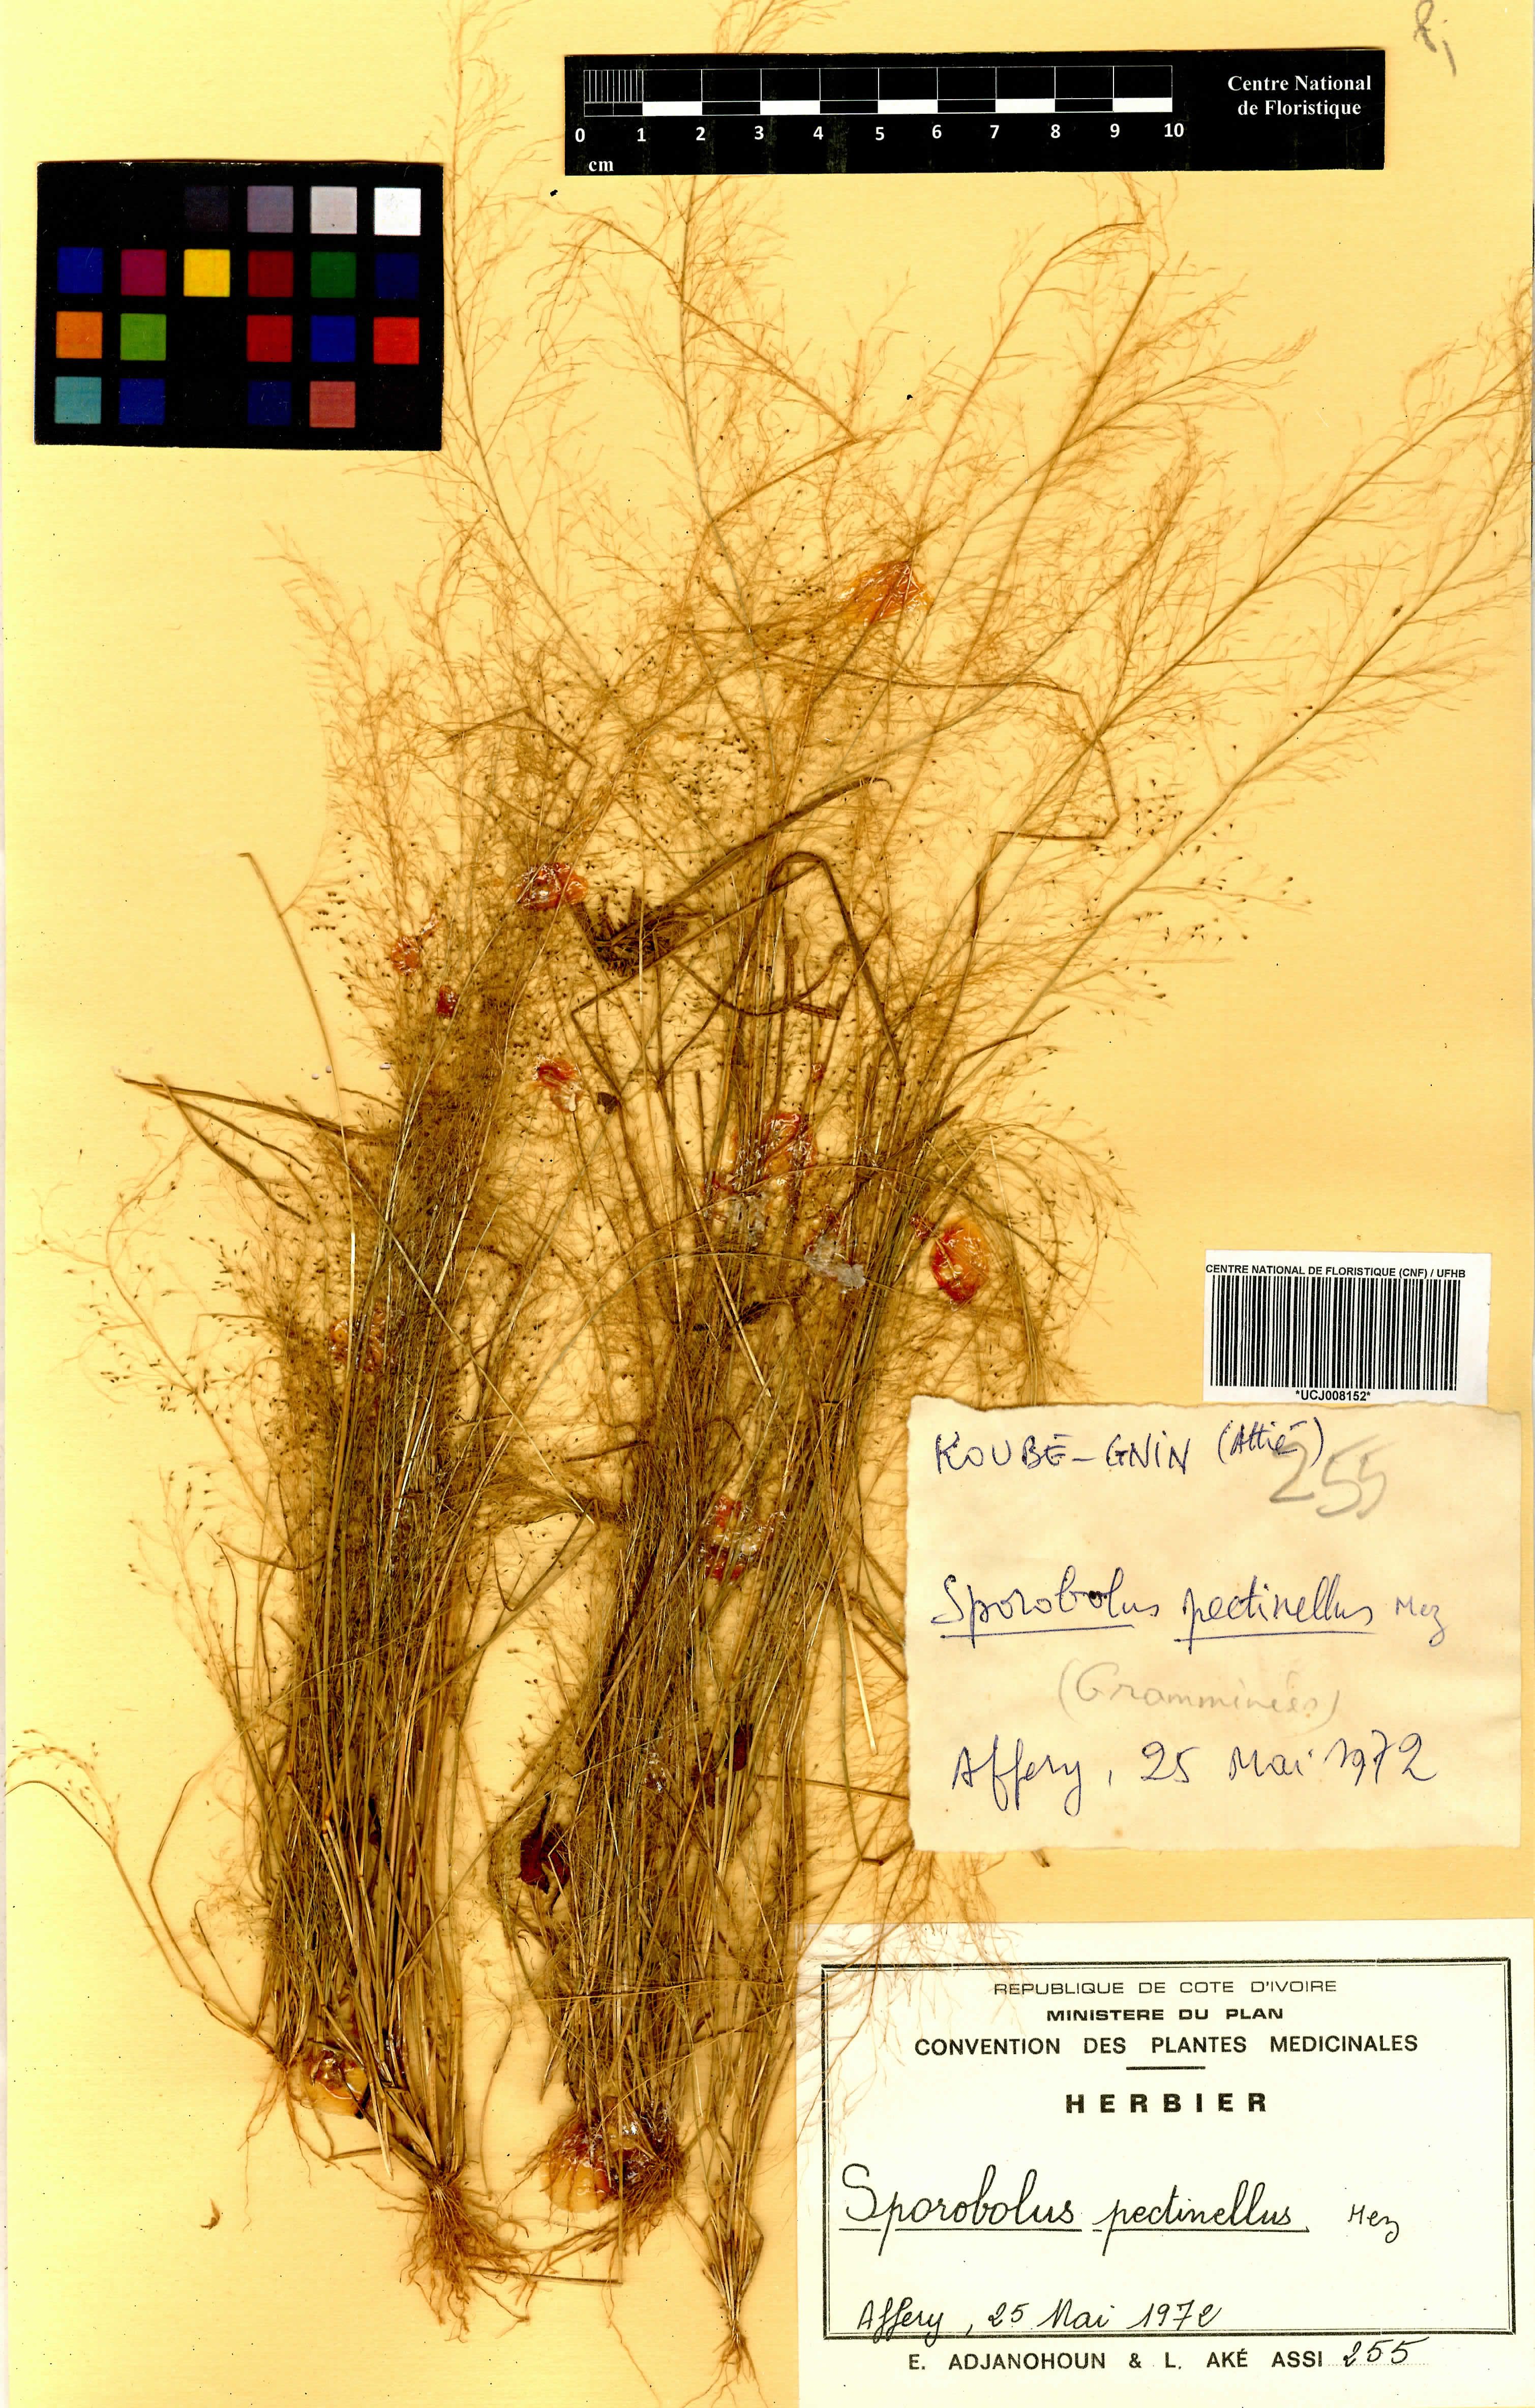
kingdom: Plantae
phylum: Tracheophyta
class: Liliopsida
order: Poales
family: Poaceae
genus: Sporobolus
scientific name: Sporobolus pectinellus
